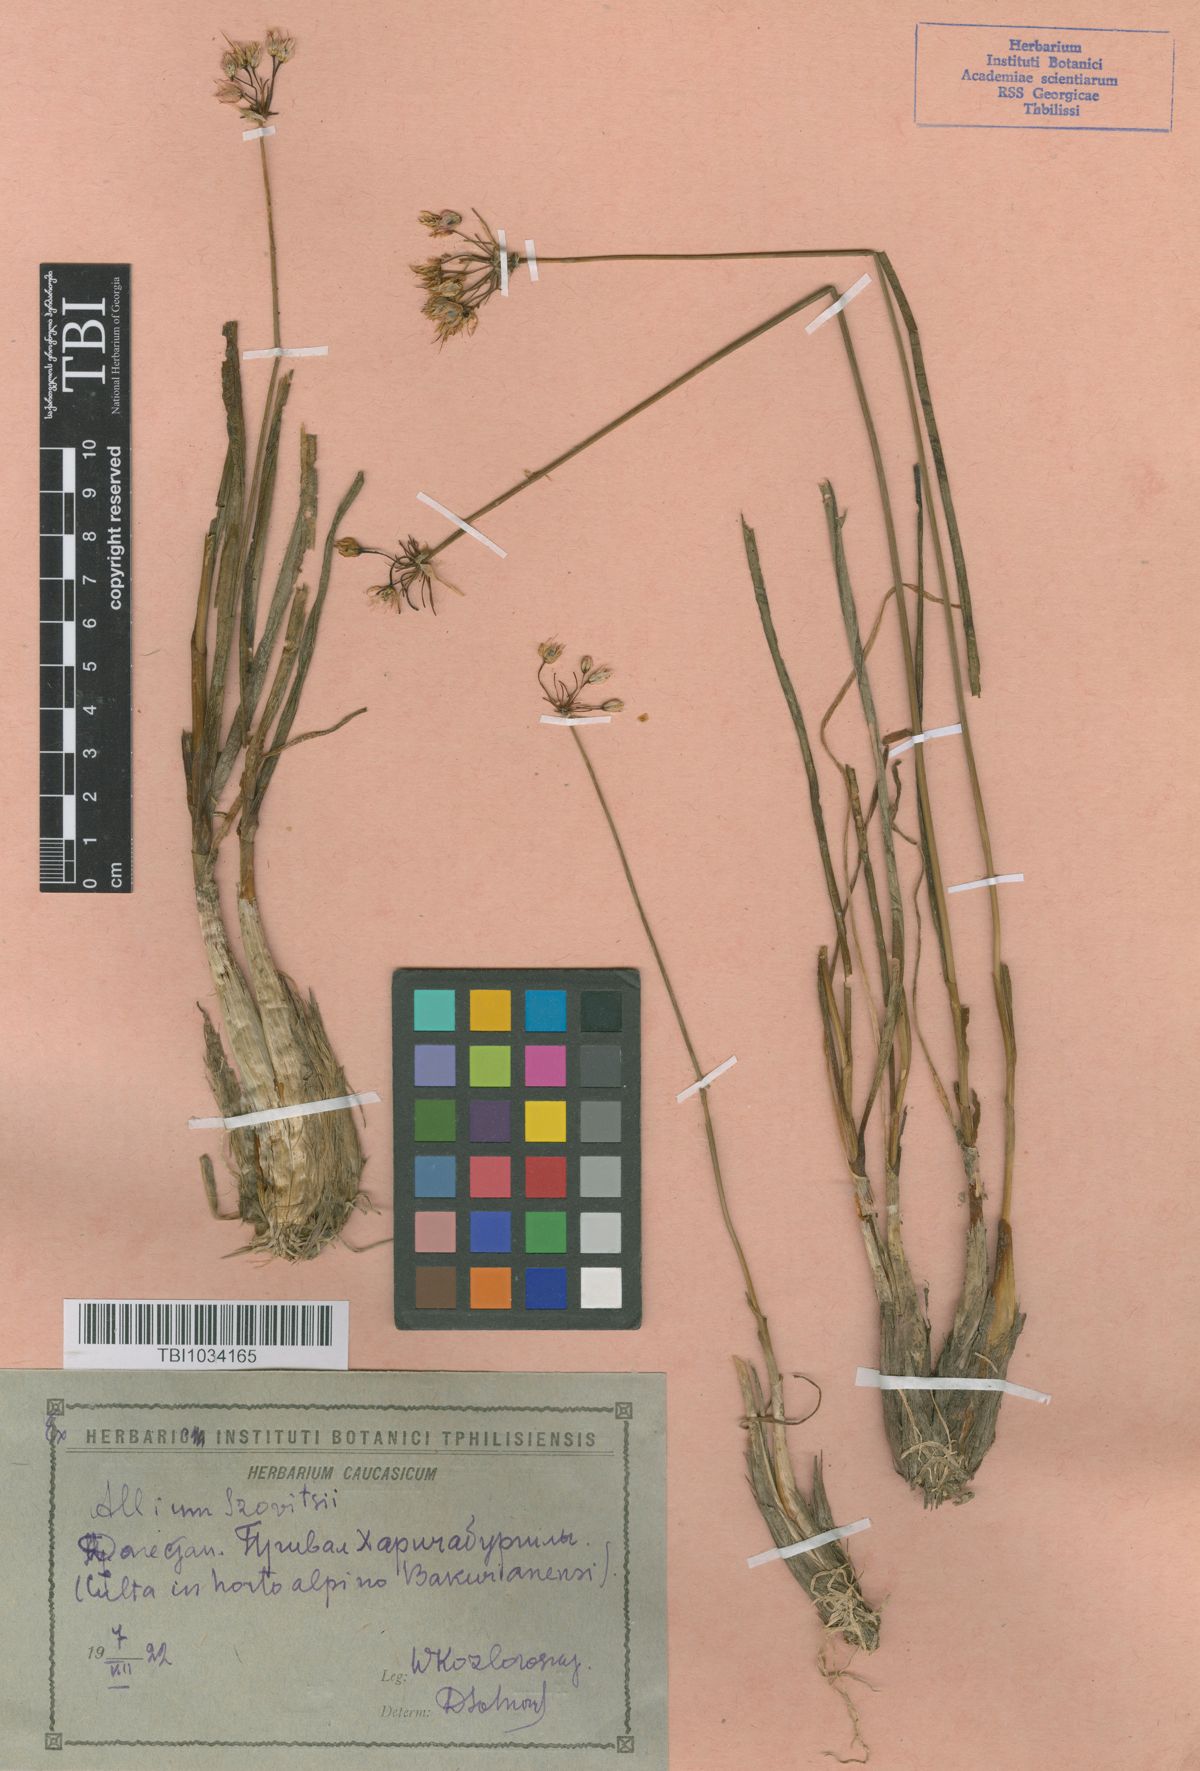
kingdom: Plantae
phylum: Tracheophyta
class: Liliopsida
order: Asparagales
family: Amaryllidaceae
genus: Allium
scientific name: Allium szovitsii
